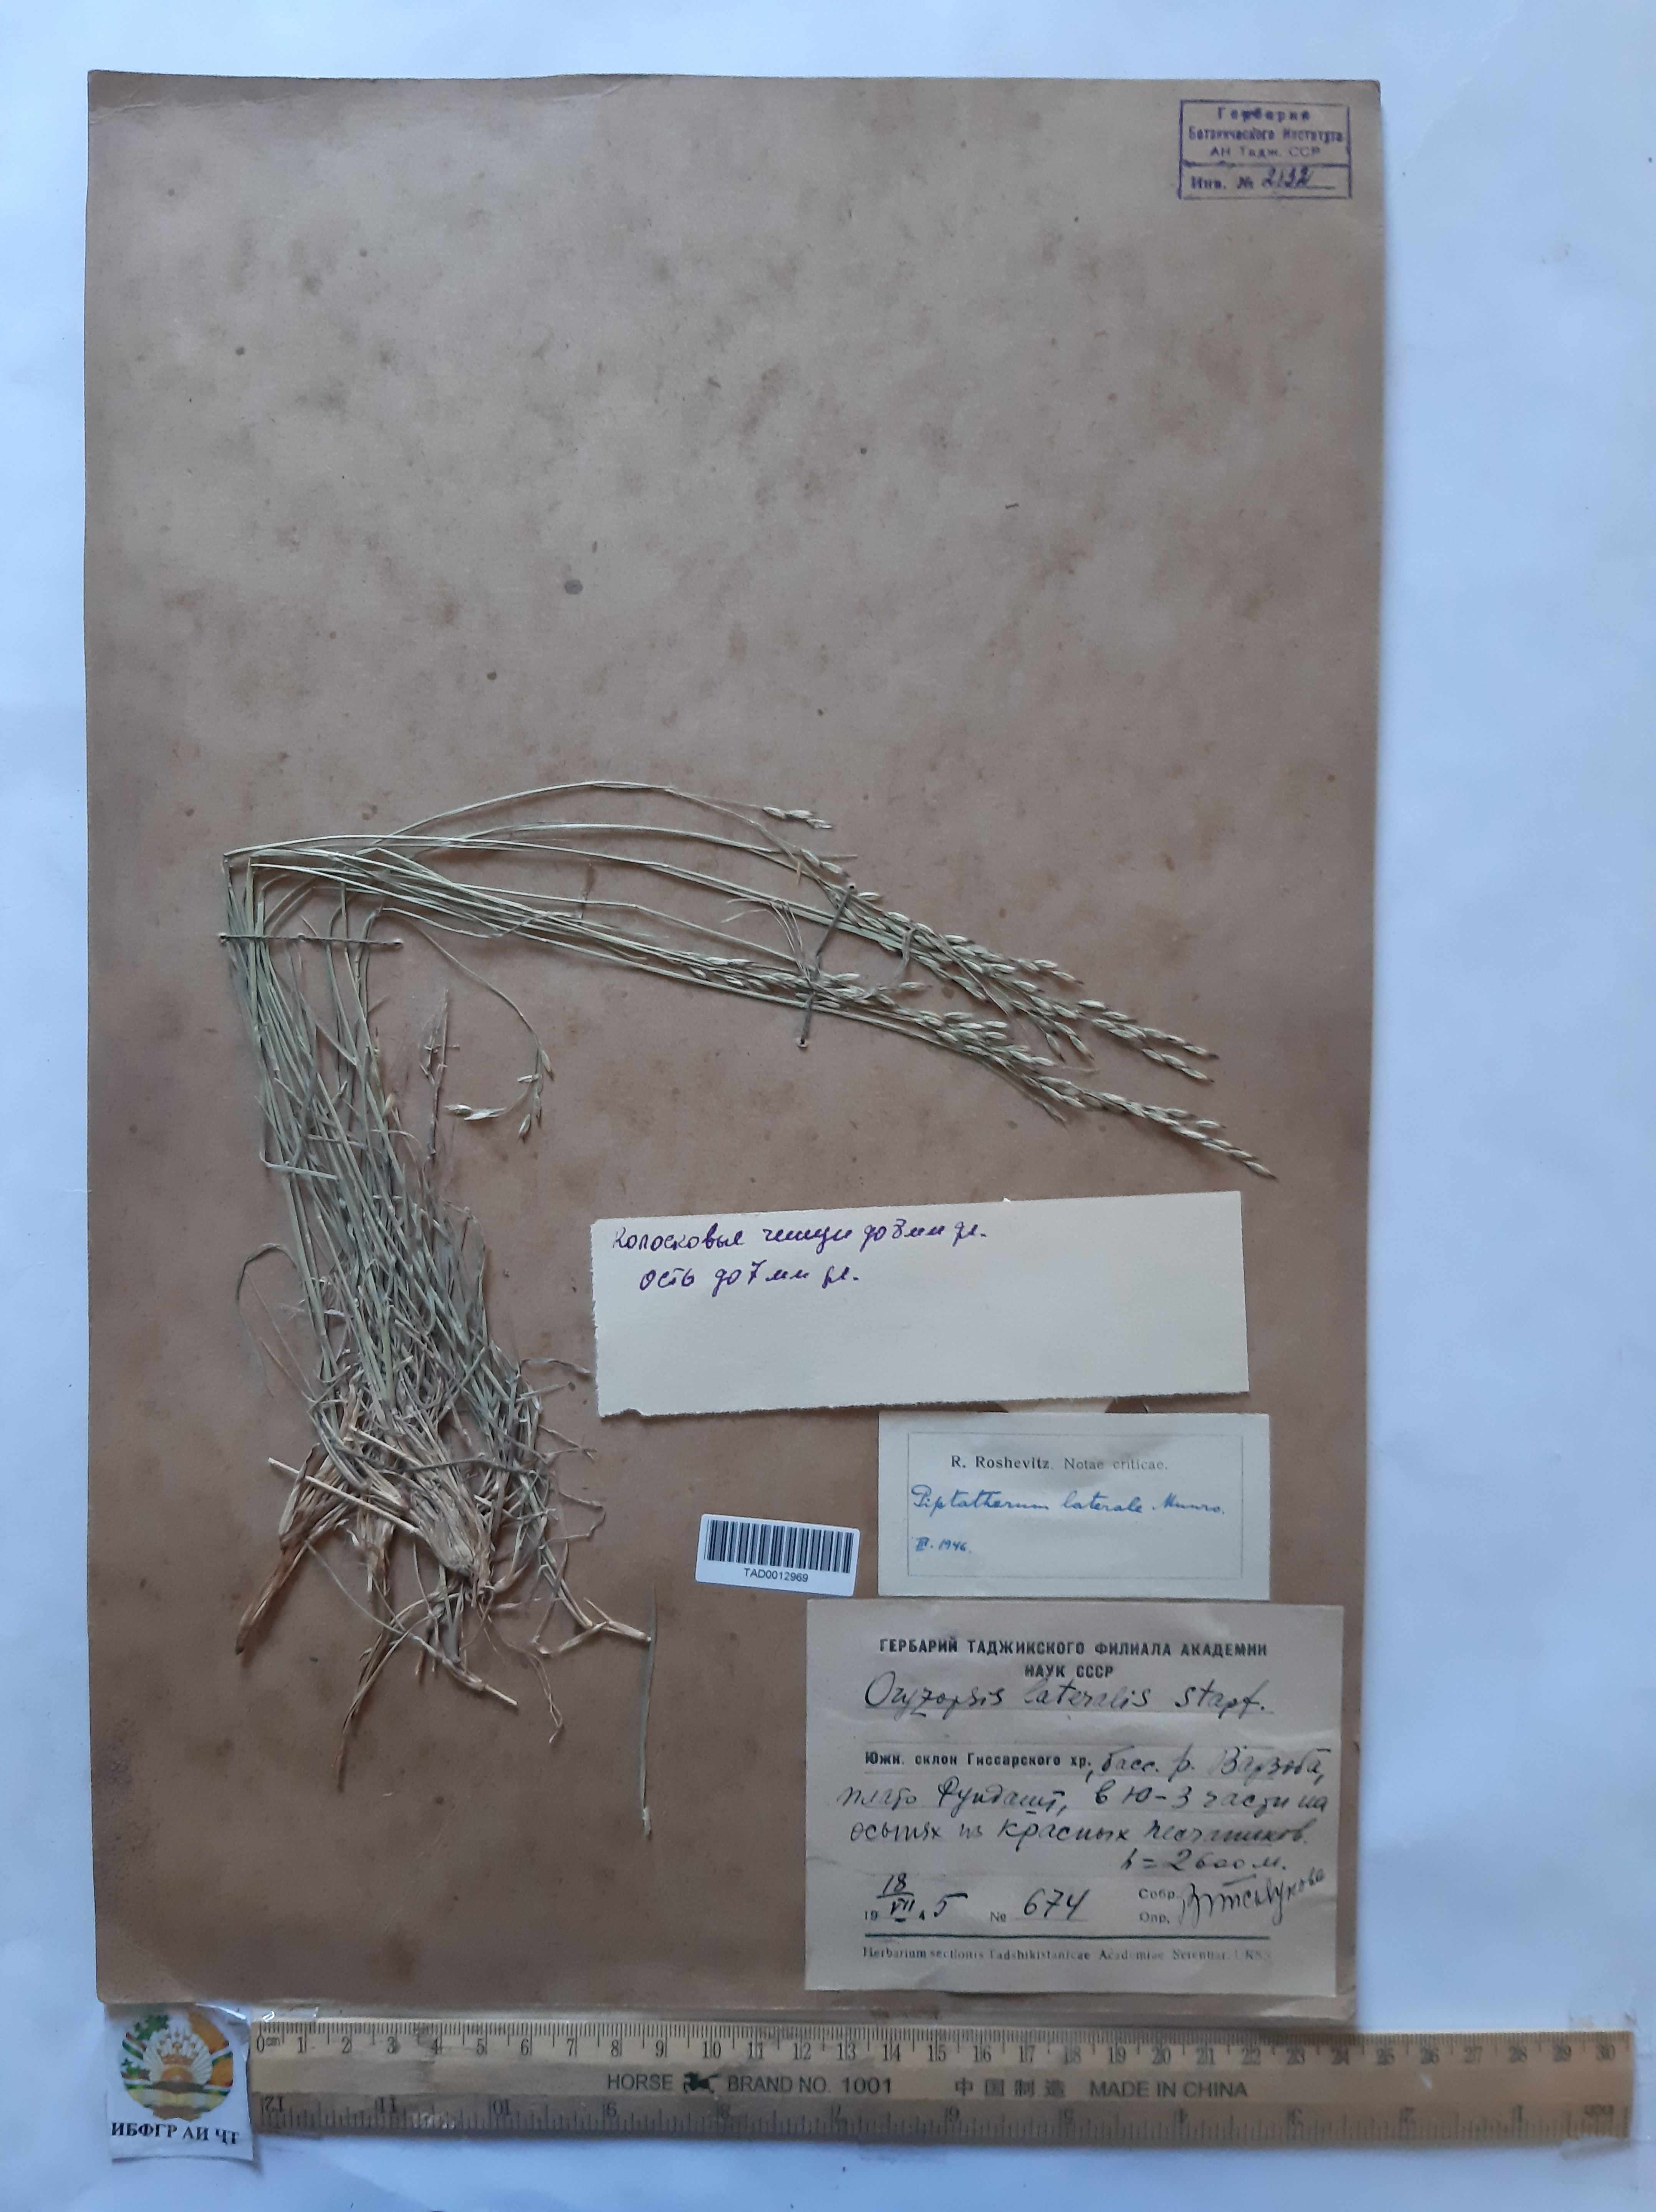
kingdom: Plantae
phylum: Tracheophyta
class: Liliopsida
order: Poales
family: Poaceae
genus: Piptatherum
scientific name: Piptatherum laterale
